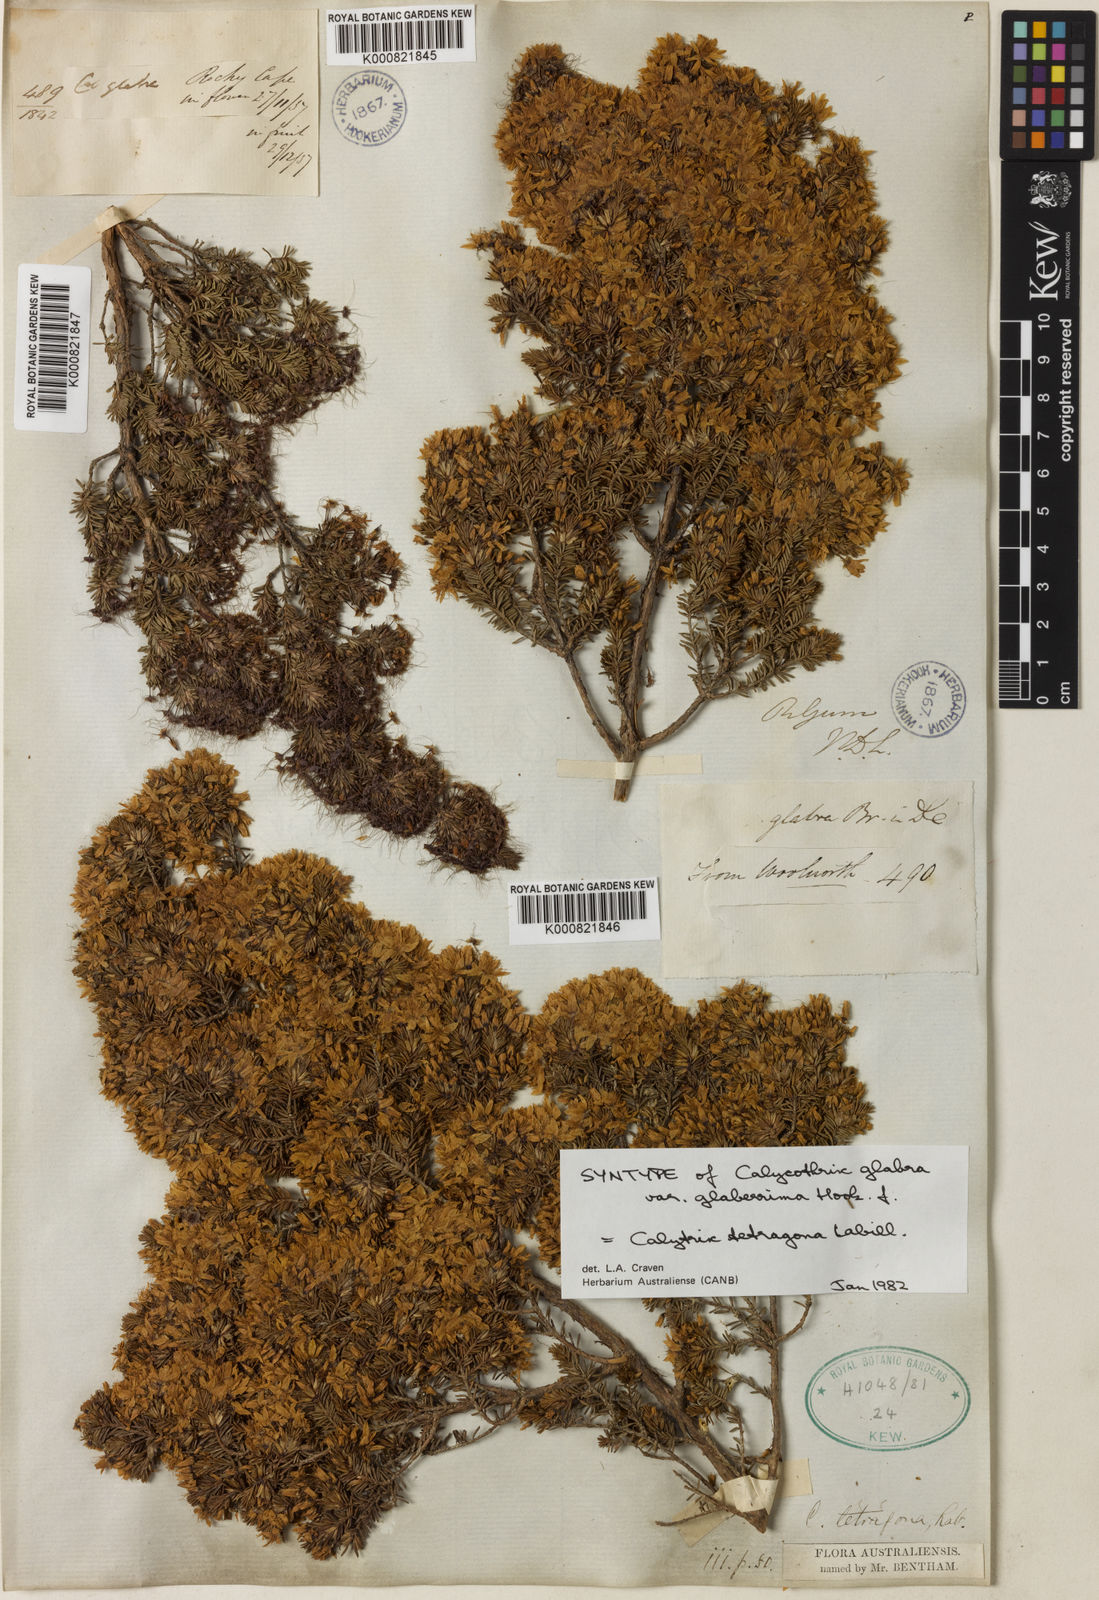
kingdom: Plantae
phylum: Tracheophyta
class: Magnoliopsida
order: Myrtales
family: Myrtaceae
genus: Calytrix
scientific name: Calytrix tetragona
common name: Common fringe myrtle
